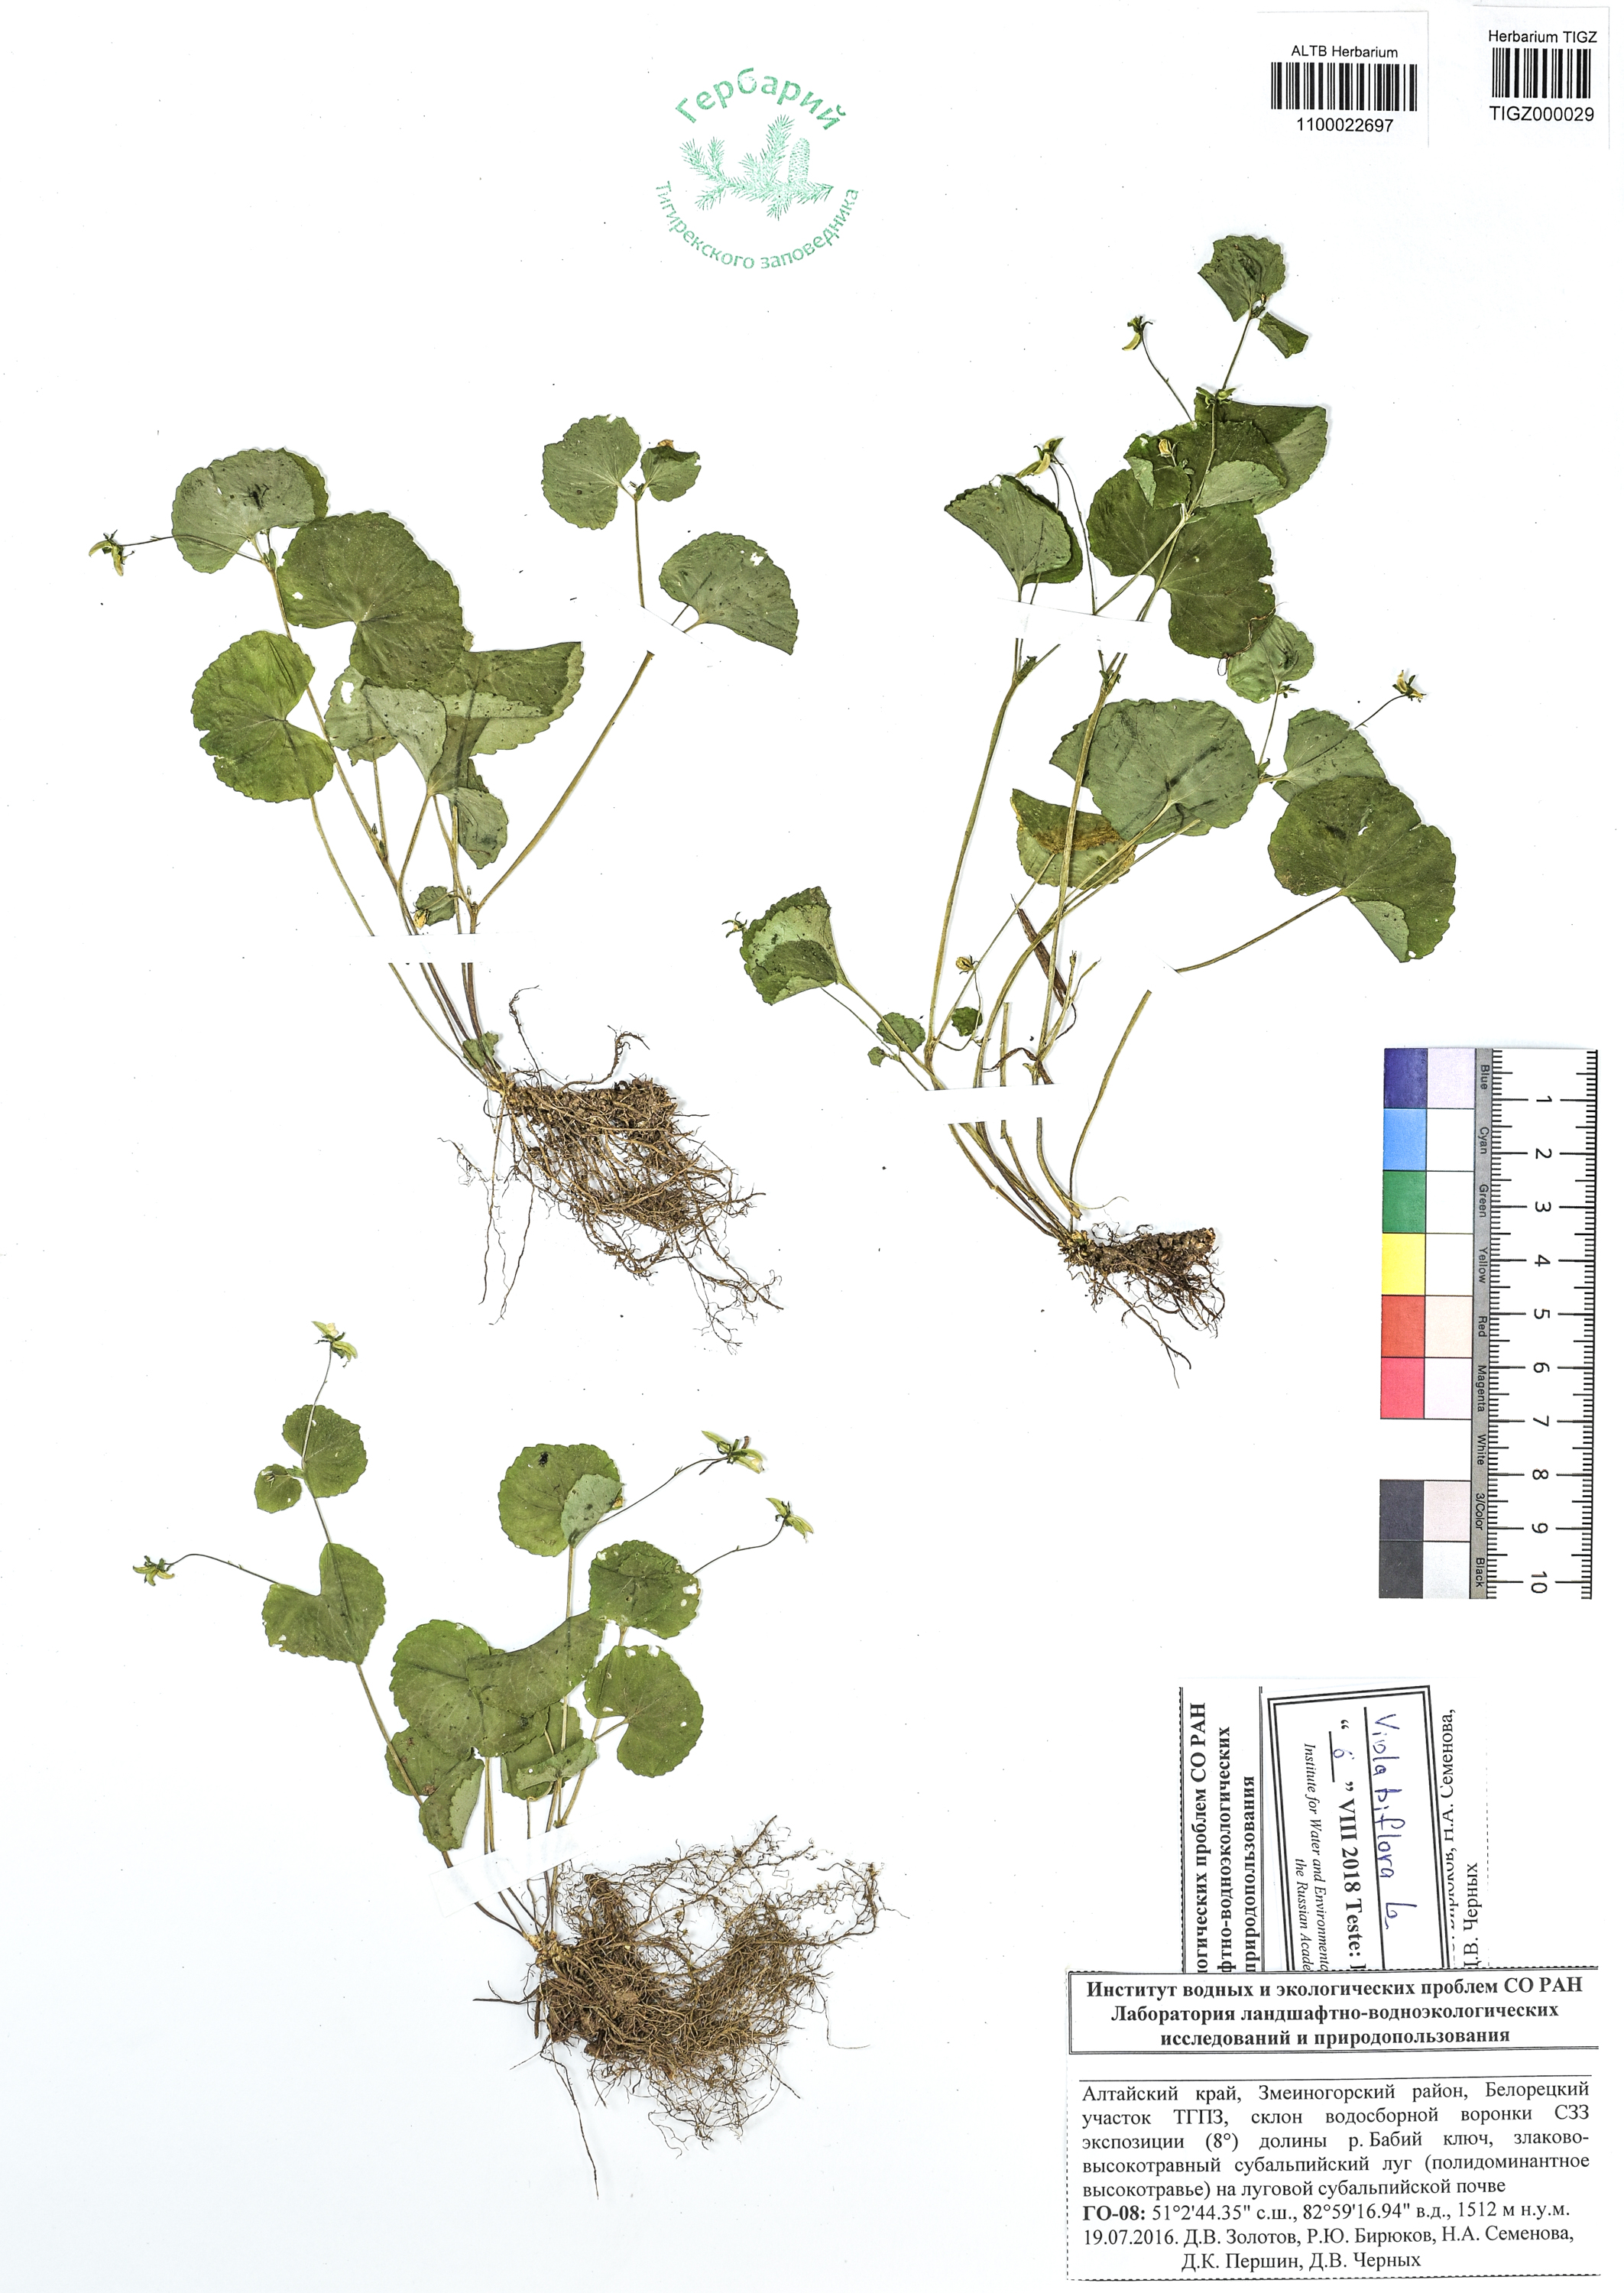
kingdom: Plantae
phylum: Tracheophyta
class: Magnoliopsida
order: Malpighiales
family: Violaceae
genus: Viola
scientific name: Viola biflora
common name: Alpine yellow violet
